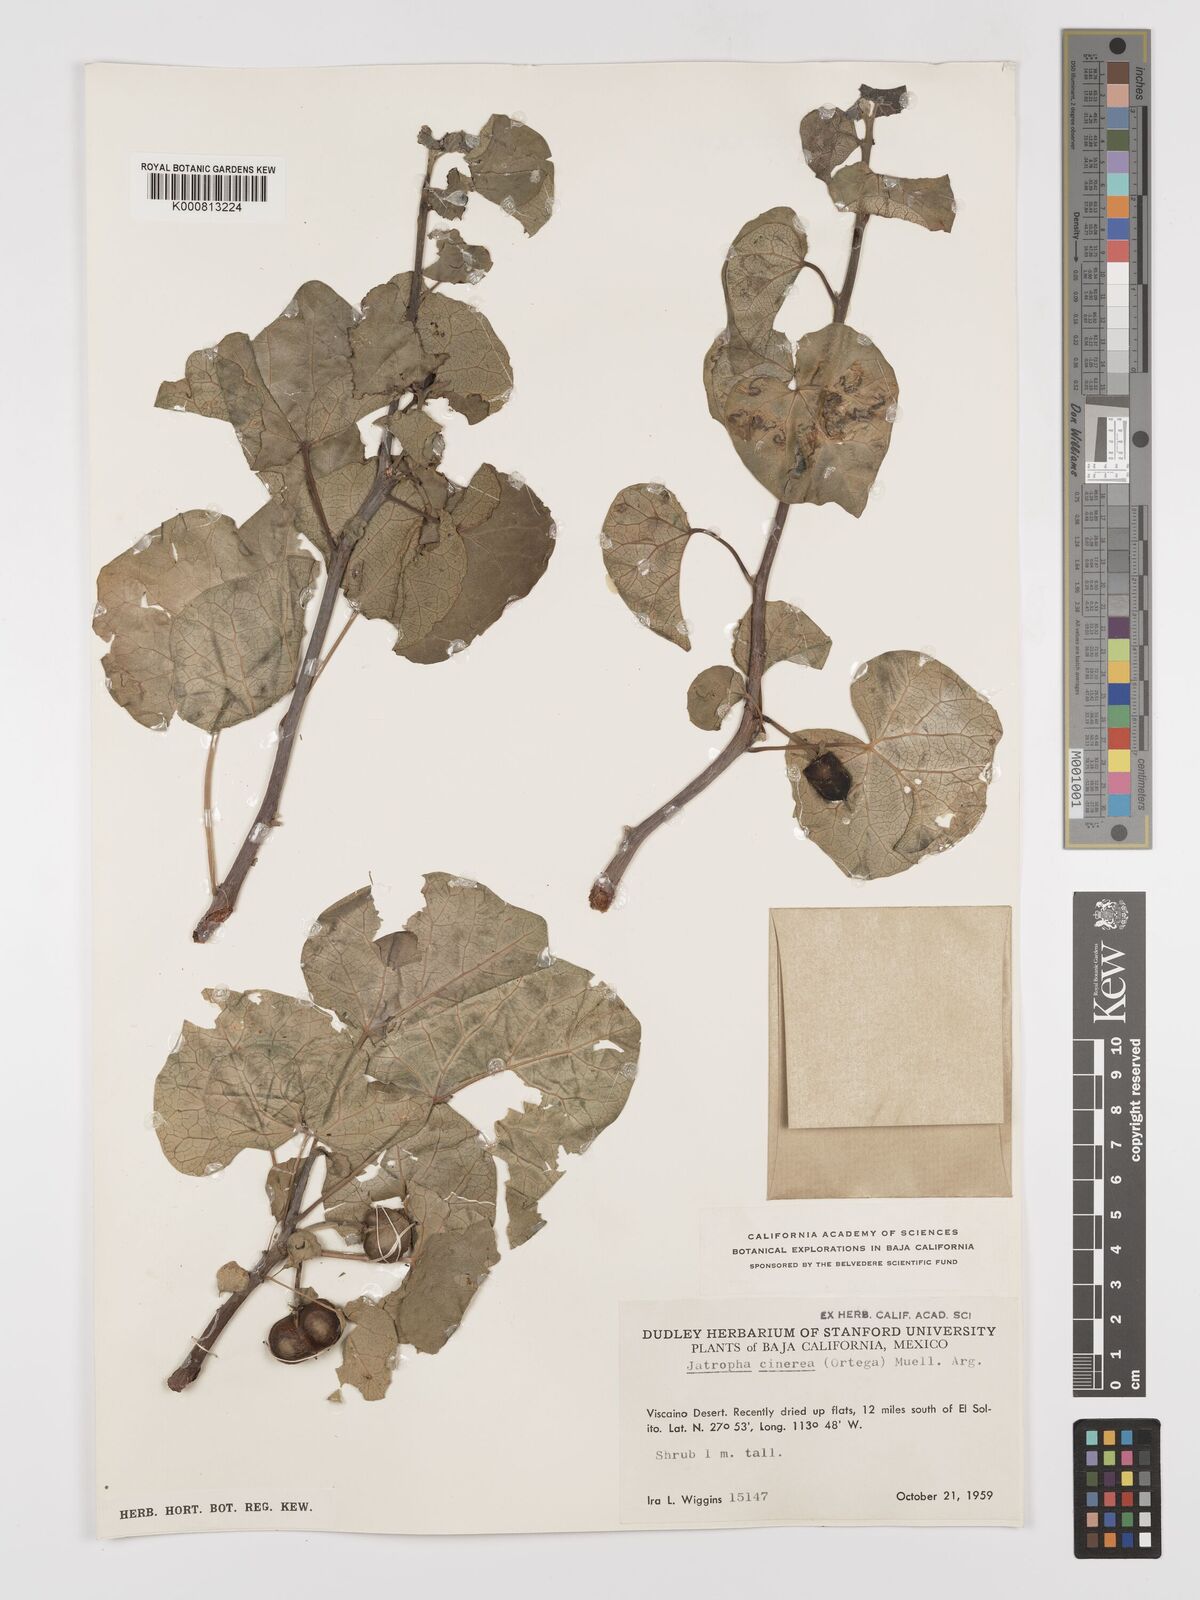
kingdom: Plantae
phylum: Tracheophyta
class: Magnoliopsida
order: Malpighiales
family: Euphorbiaceae
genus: Jatropha
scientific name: Jatropha
